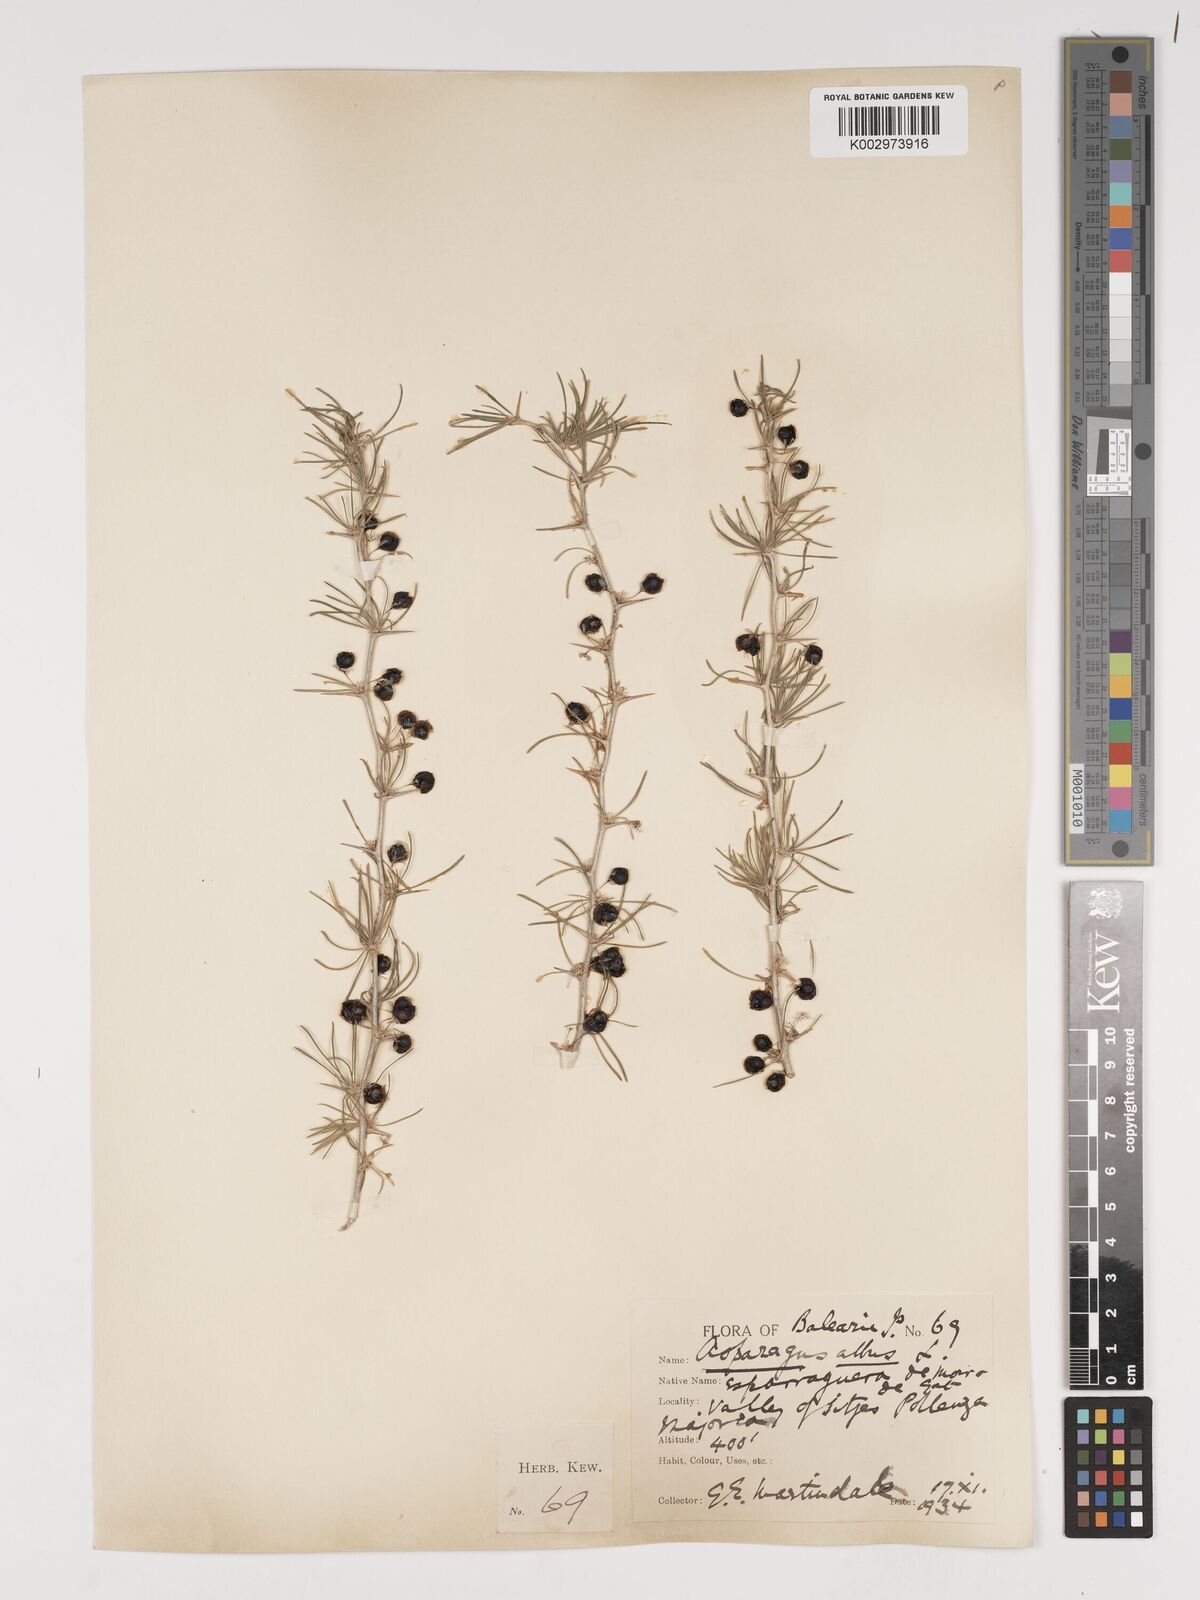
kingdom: Plantae
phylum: Tracheophyta
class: Liliopsida
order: Asparagales
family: Asparagaceae
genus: Asparagus
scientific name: Asparagus albus
